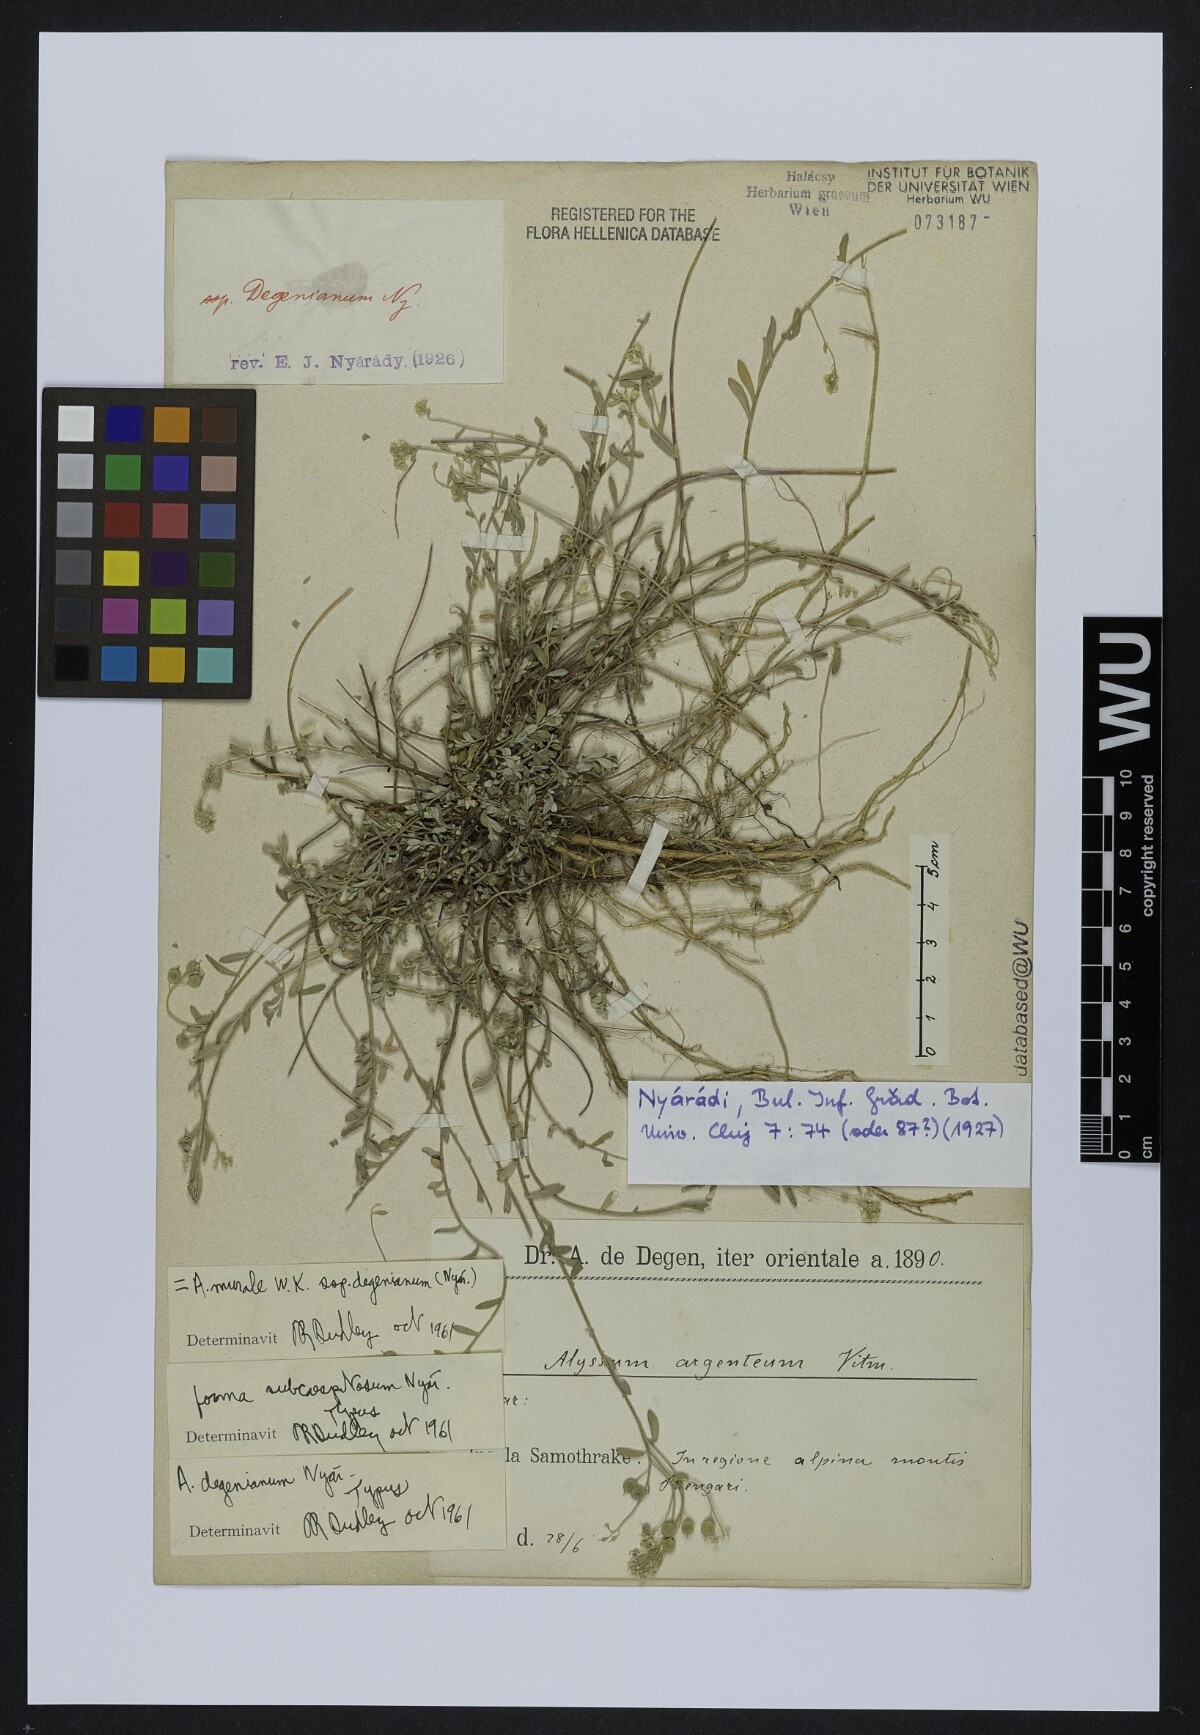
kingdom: Plantae
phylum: Tracheophyta
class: Magnoliopsida
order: Brassicales
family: Brassicaceae
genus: Odontarrhena
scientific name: Odontarrhena muralis
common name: Rock alyssum
